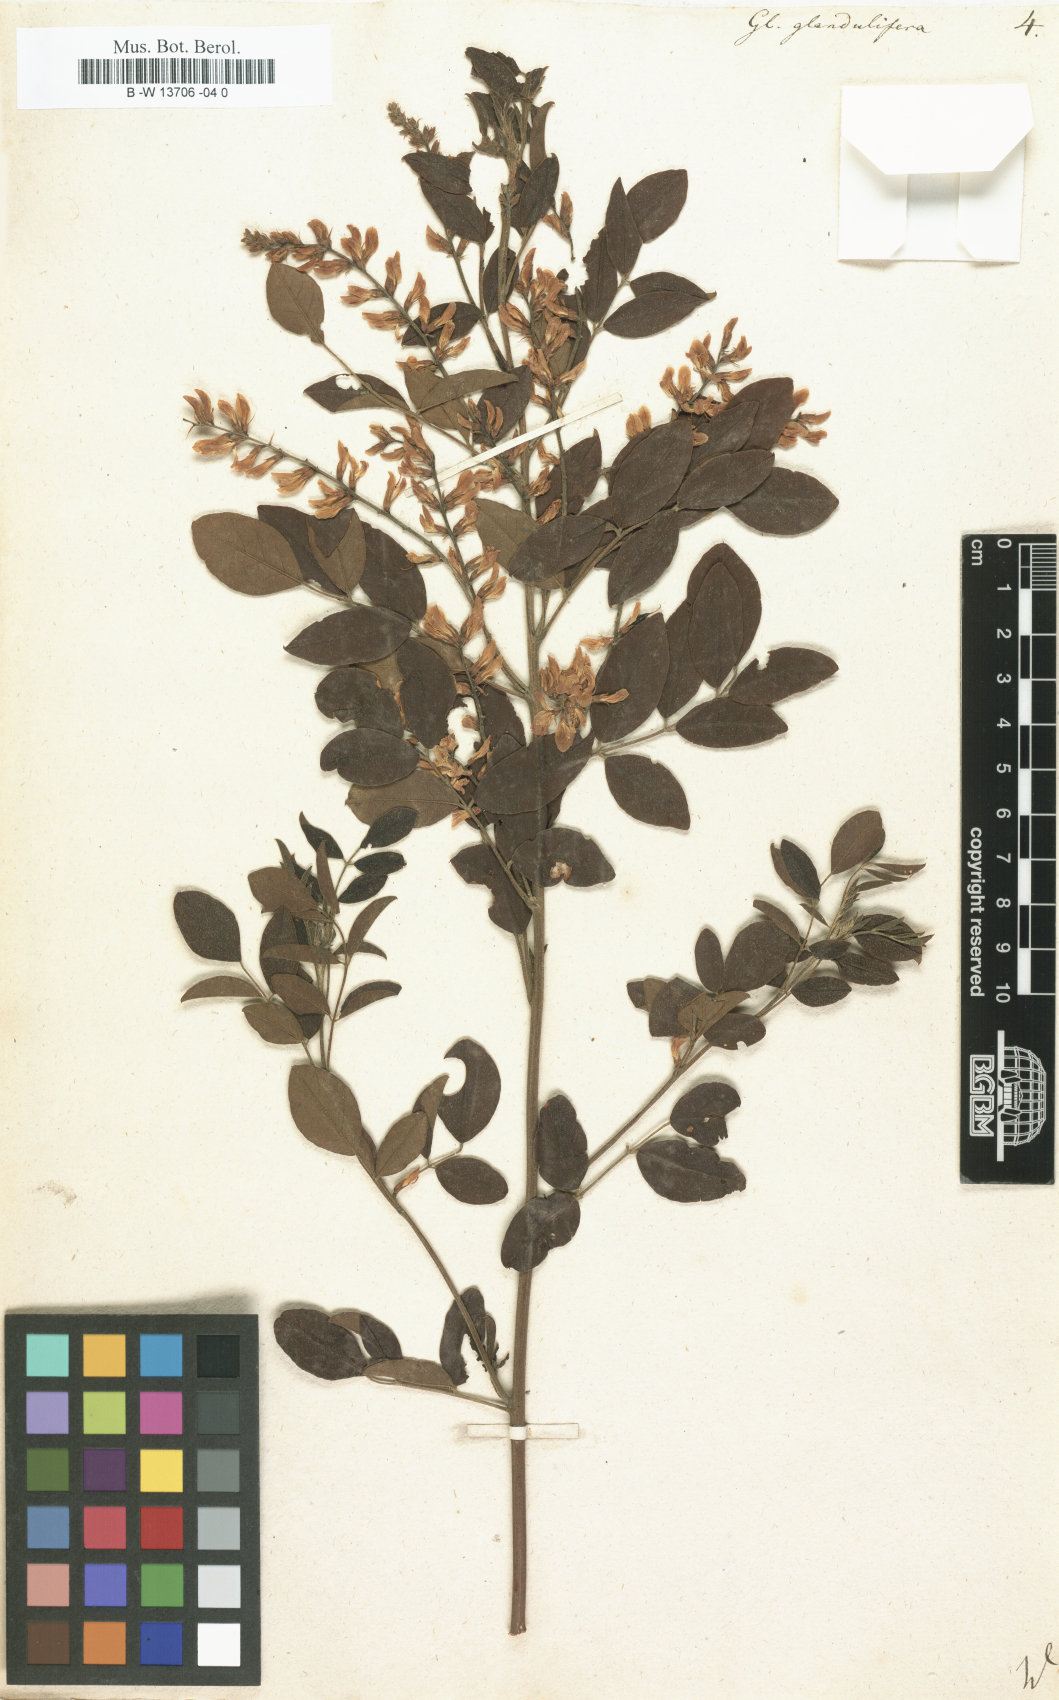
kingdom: Plantae
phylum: Tracheophyta
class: Magnoliopsida
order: Fabales
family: Fabaceae
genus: Glycyrrhiza
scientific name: Glycyrrhiza
